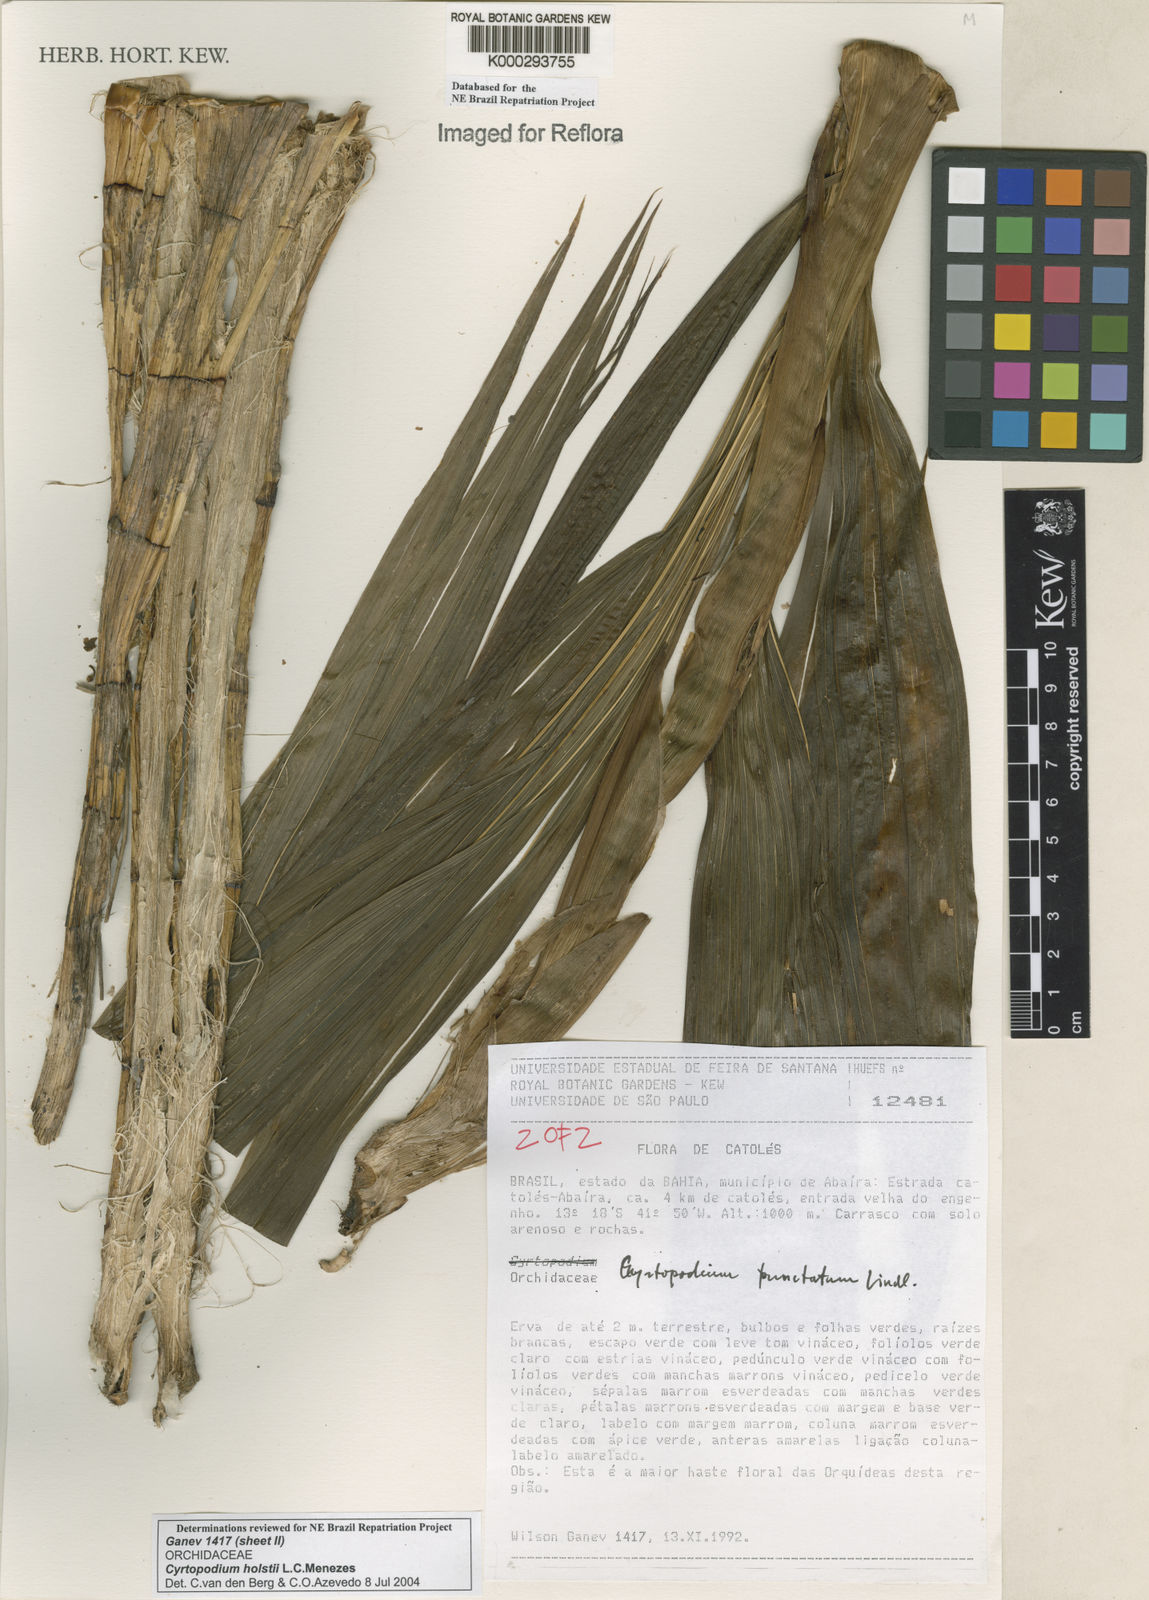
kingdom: Plantae
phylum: Tracheophyta
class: Liliopsida
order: Asparagales
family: Orchidaceae
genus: Cyrtopodium
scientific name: Cyrtopodium holstii
